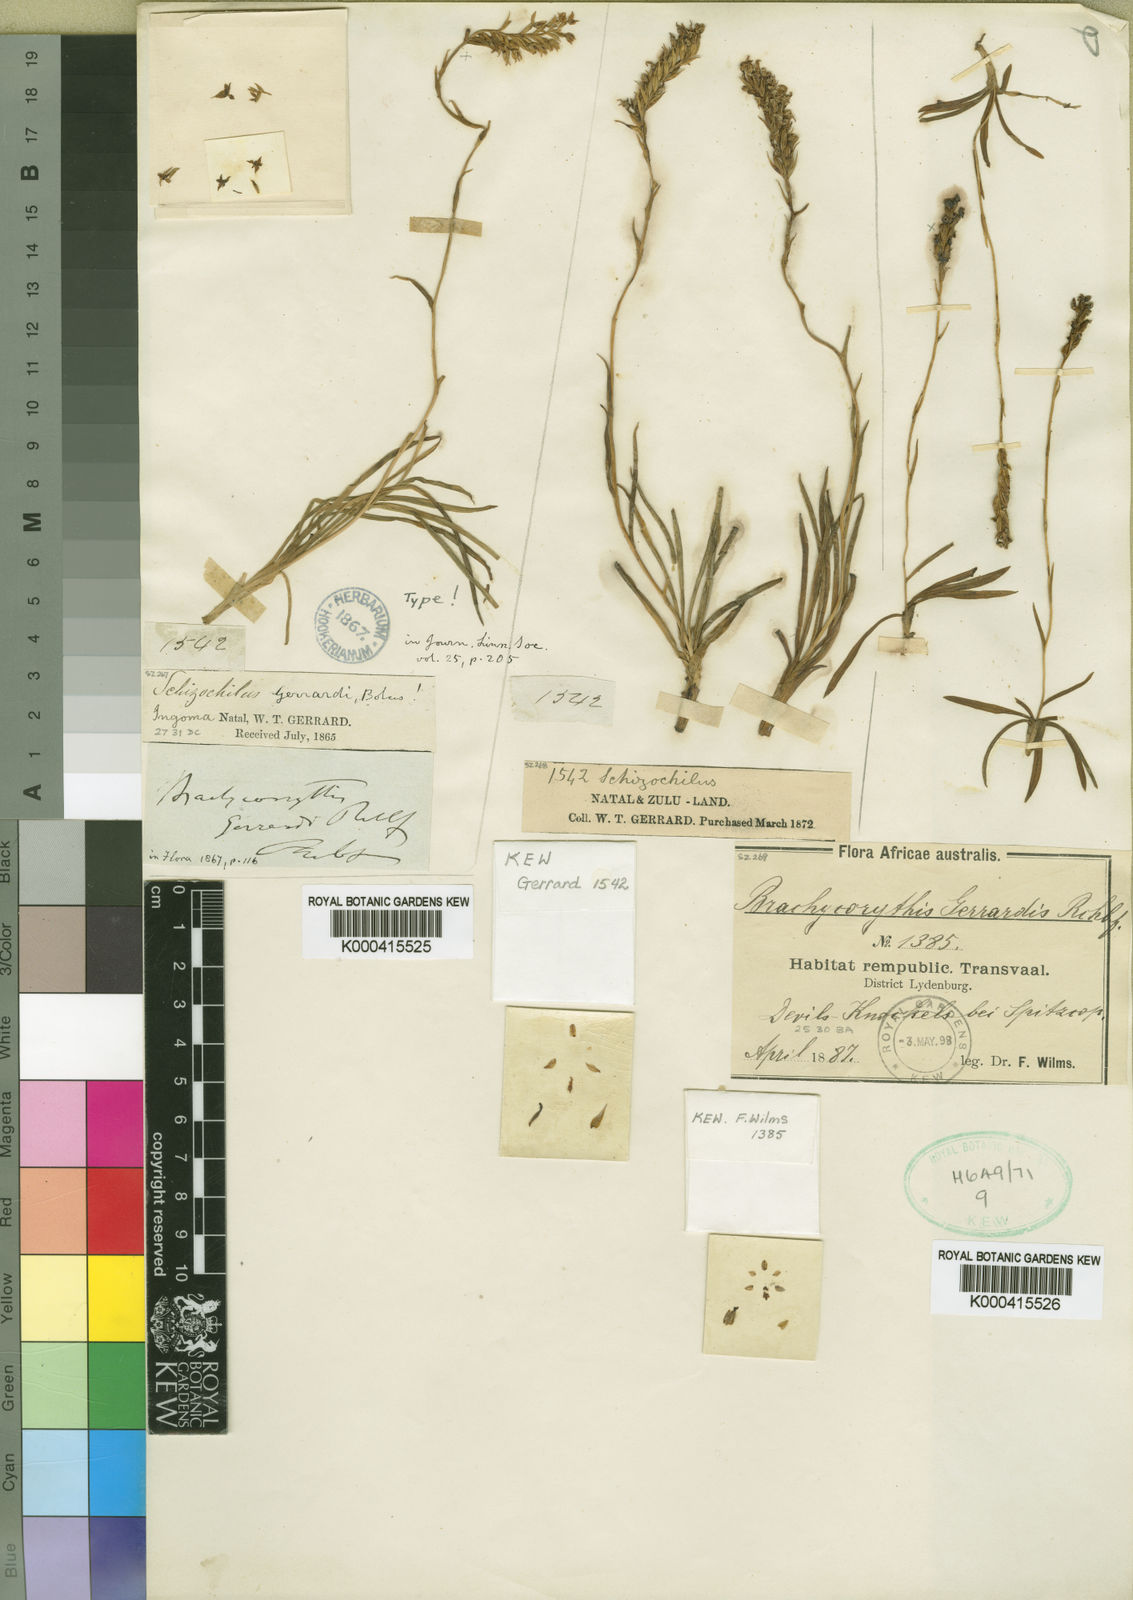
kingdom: Plantae
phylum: Tracheophyta
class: Liliopsida
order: Asparagales
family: Orchidaceae
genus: Schizochilus
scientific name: Schizochilus gerrardii
